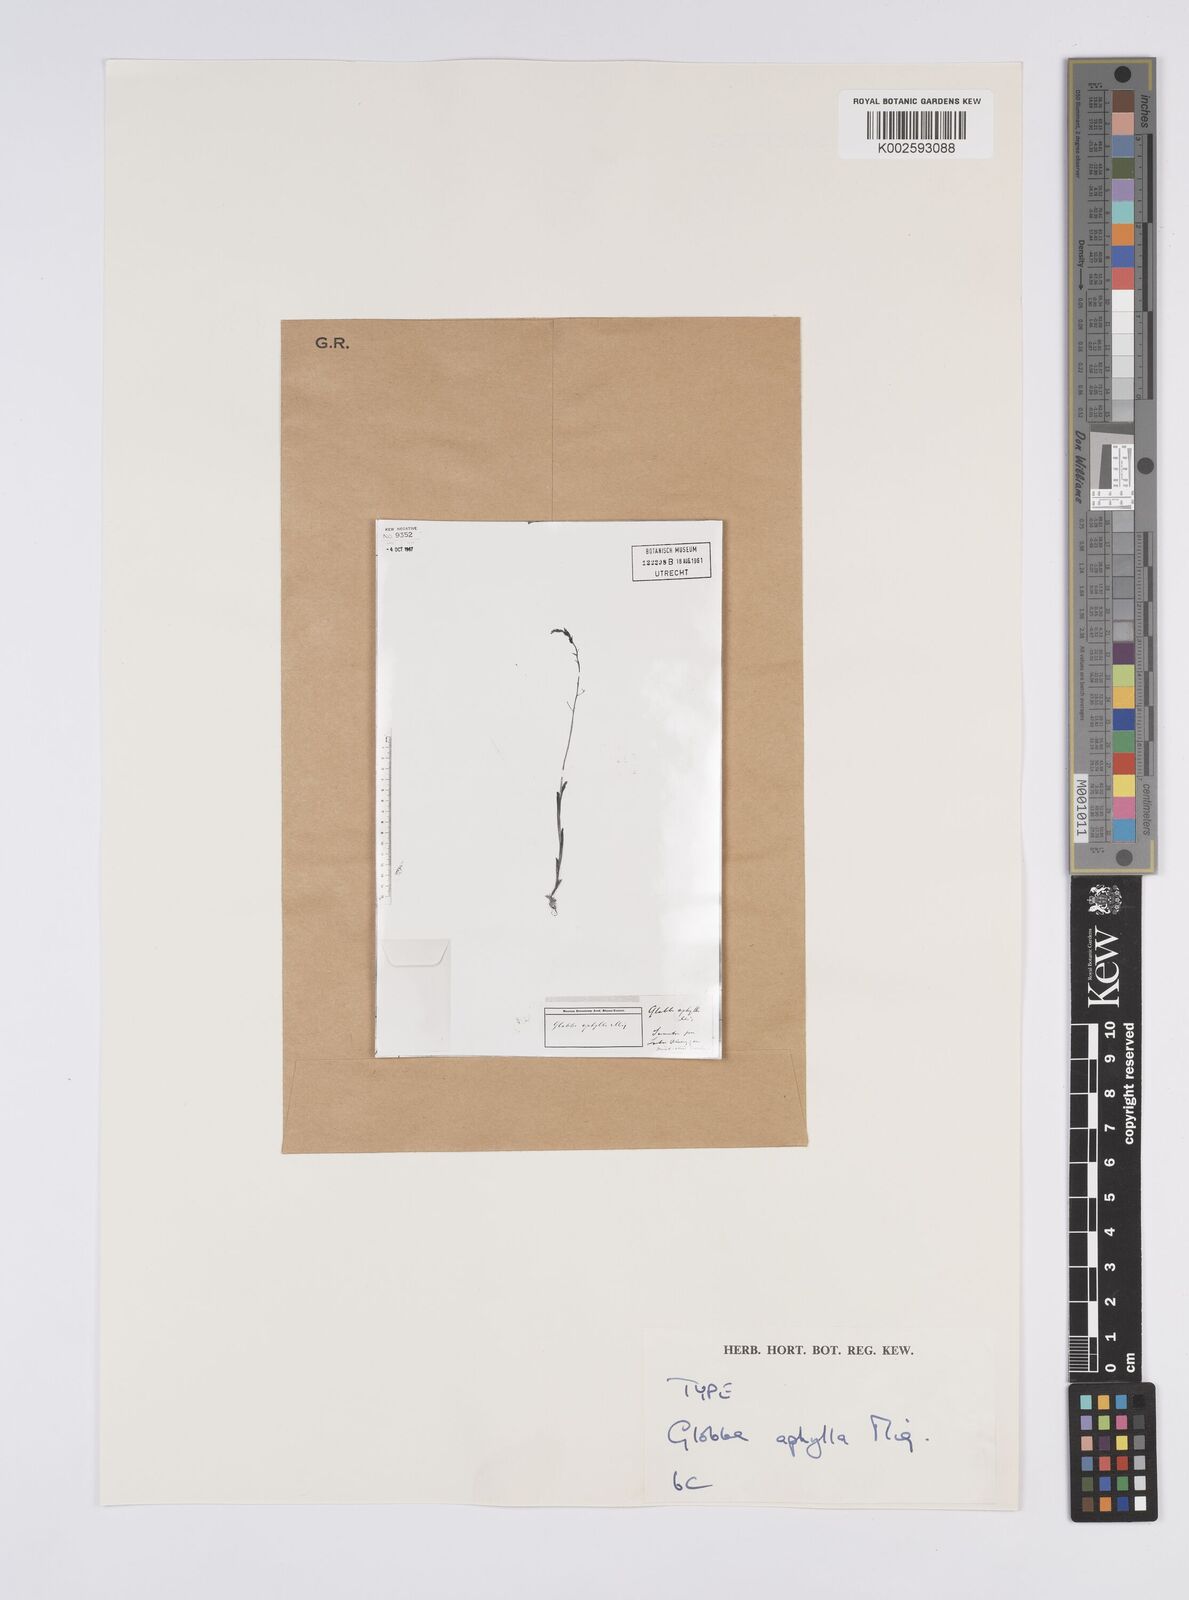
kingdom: Plantae
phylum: Tracheophyta
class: Liliopsida
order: Zingiberales
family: Zingiberaceae
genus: Globba
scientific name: Globba pendula
